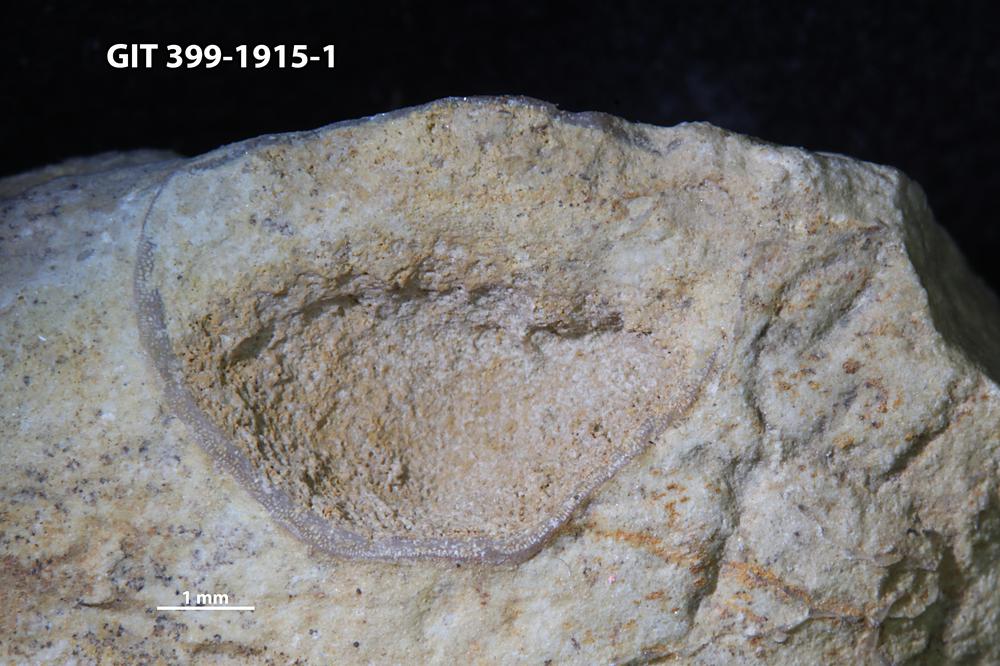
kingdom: Animalia
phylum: Brachiopoda
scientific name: Brachiopoda
